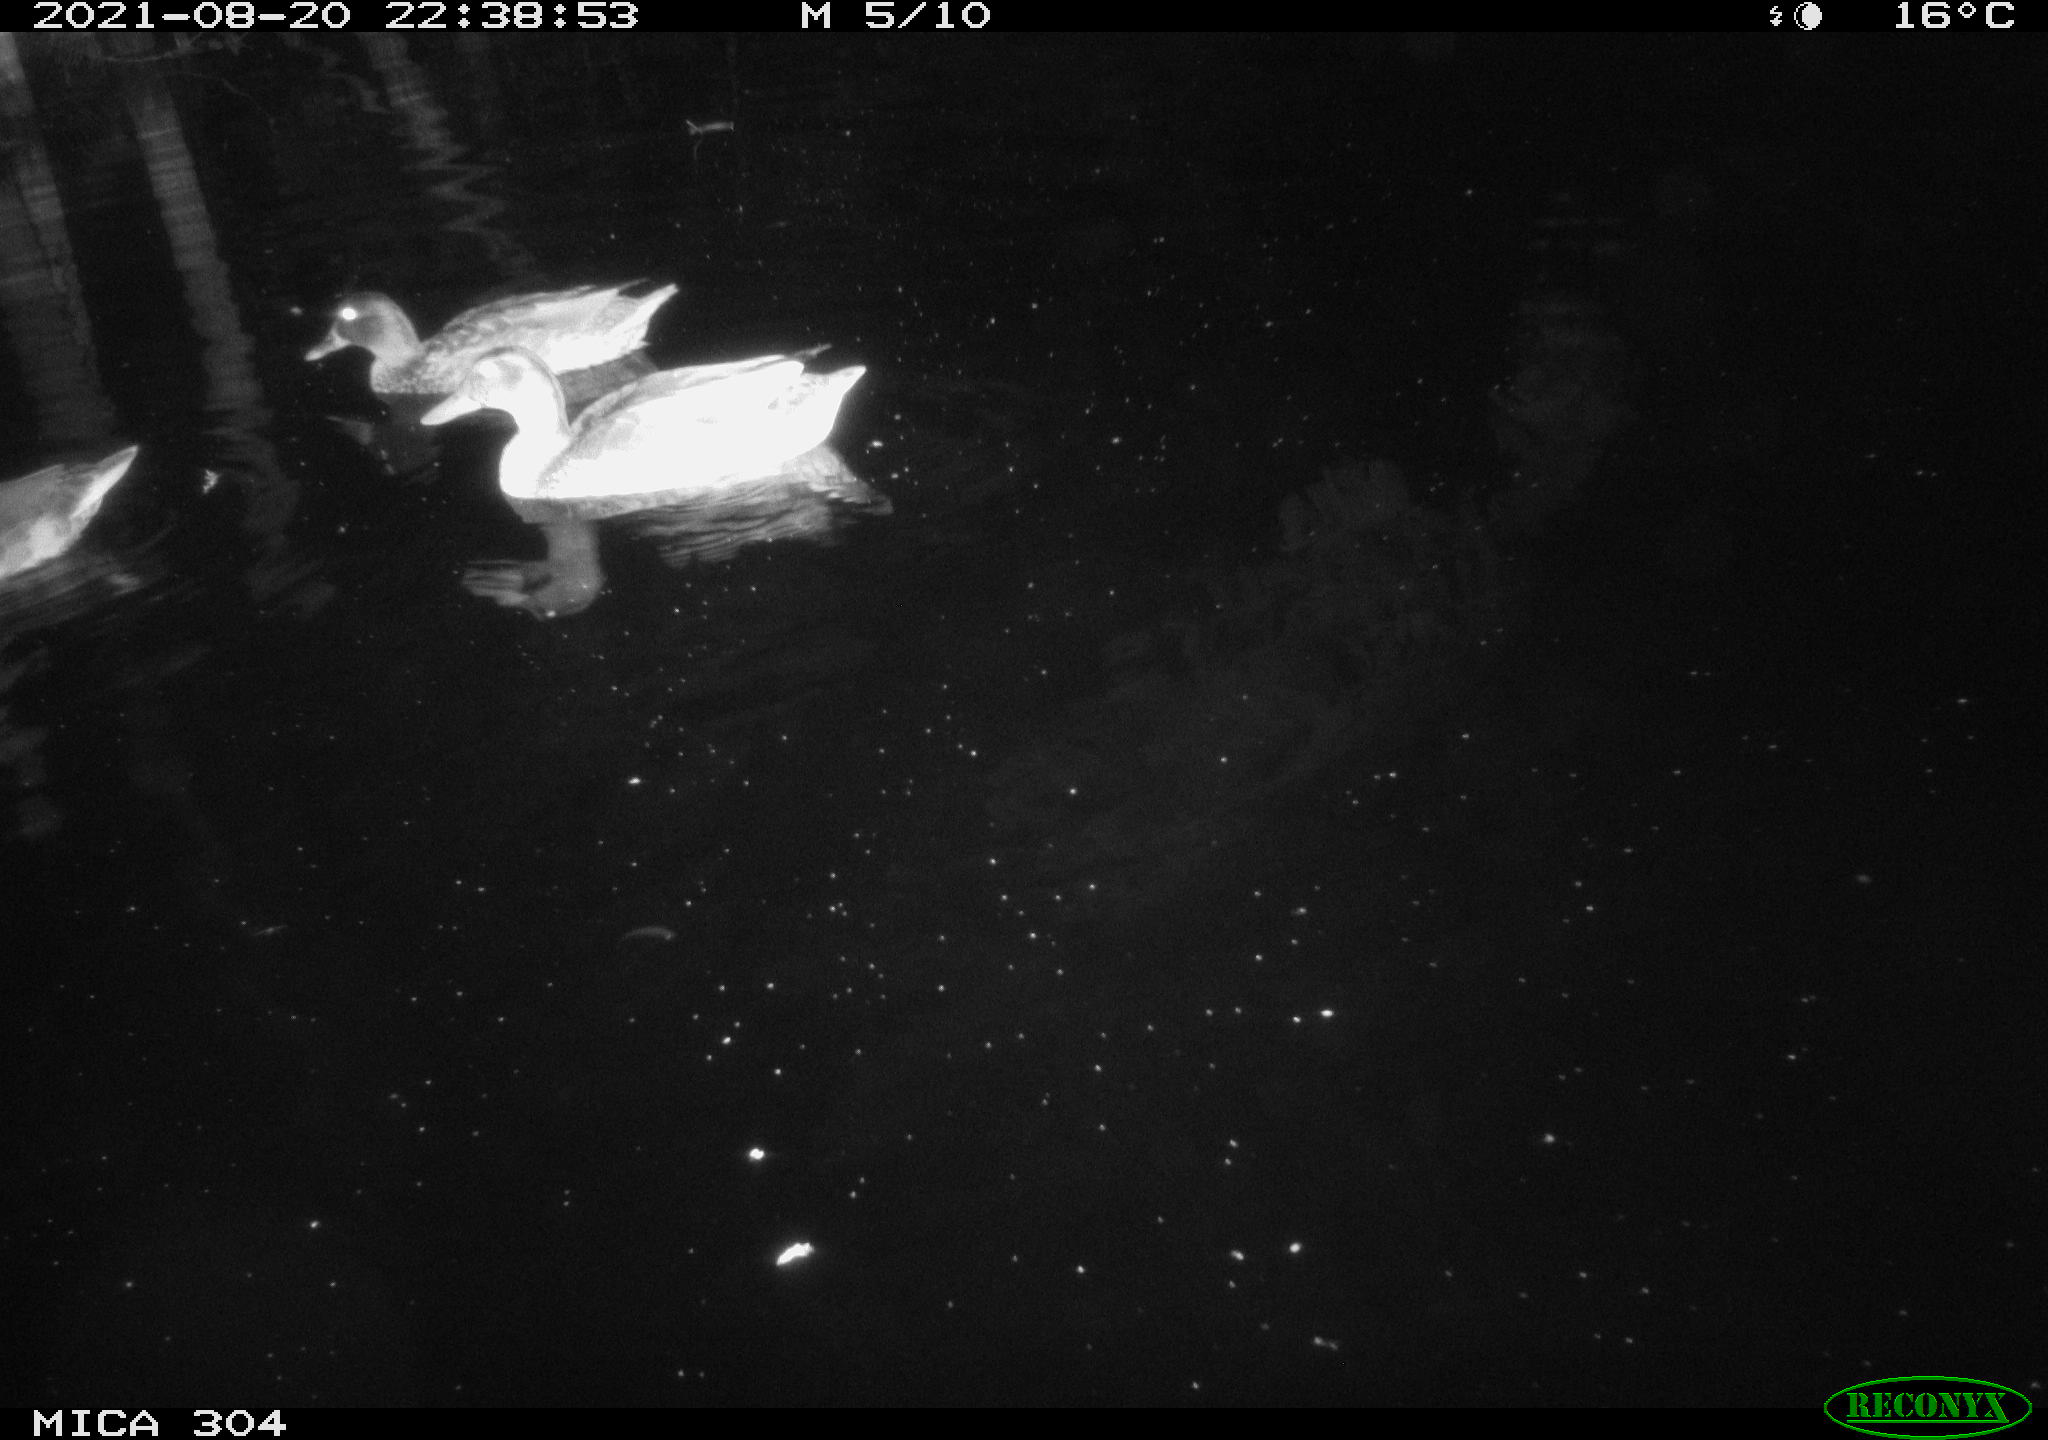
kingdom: Animalia
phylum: Chordata
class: Aves
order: Anseriformes
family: Anatidae
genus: Mareca
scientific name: Mareca strepera
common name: Gadwall
